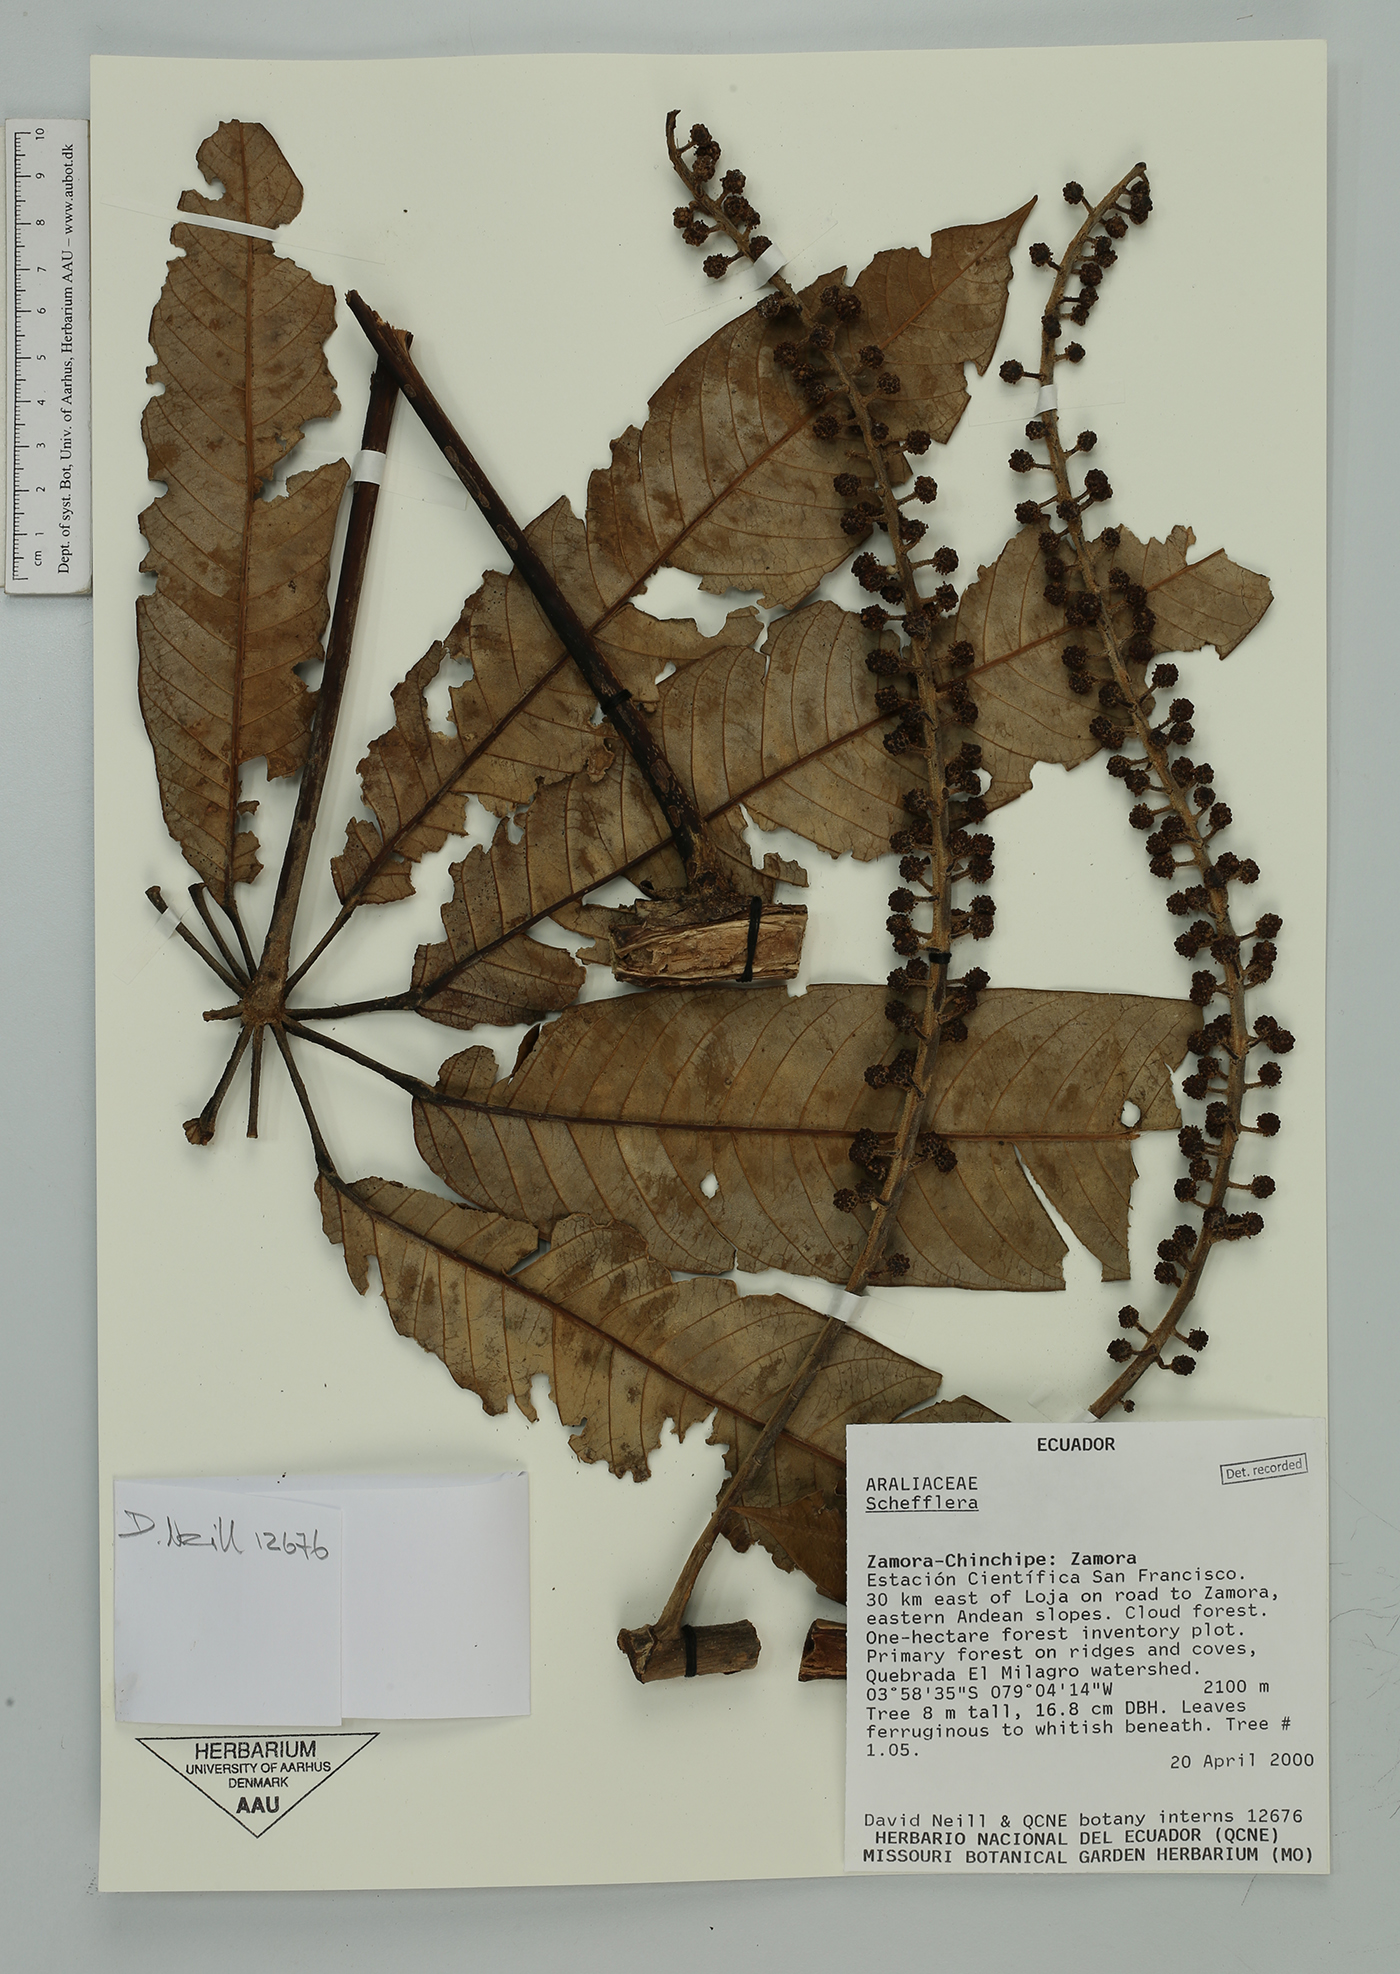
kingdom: Plantae
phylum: Tracheophyta
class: Magnoliopsida
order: Apiales
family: Araliaceae
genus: Sciodaphyllum
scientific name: Sciodaphyllum
